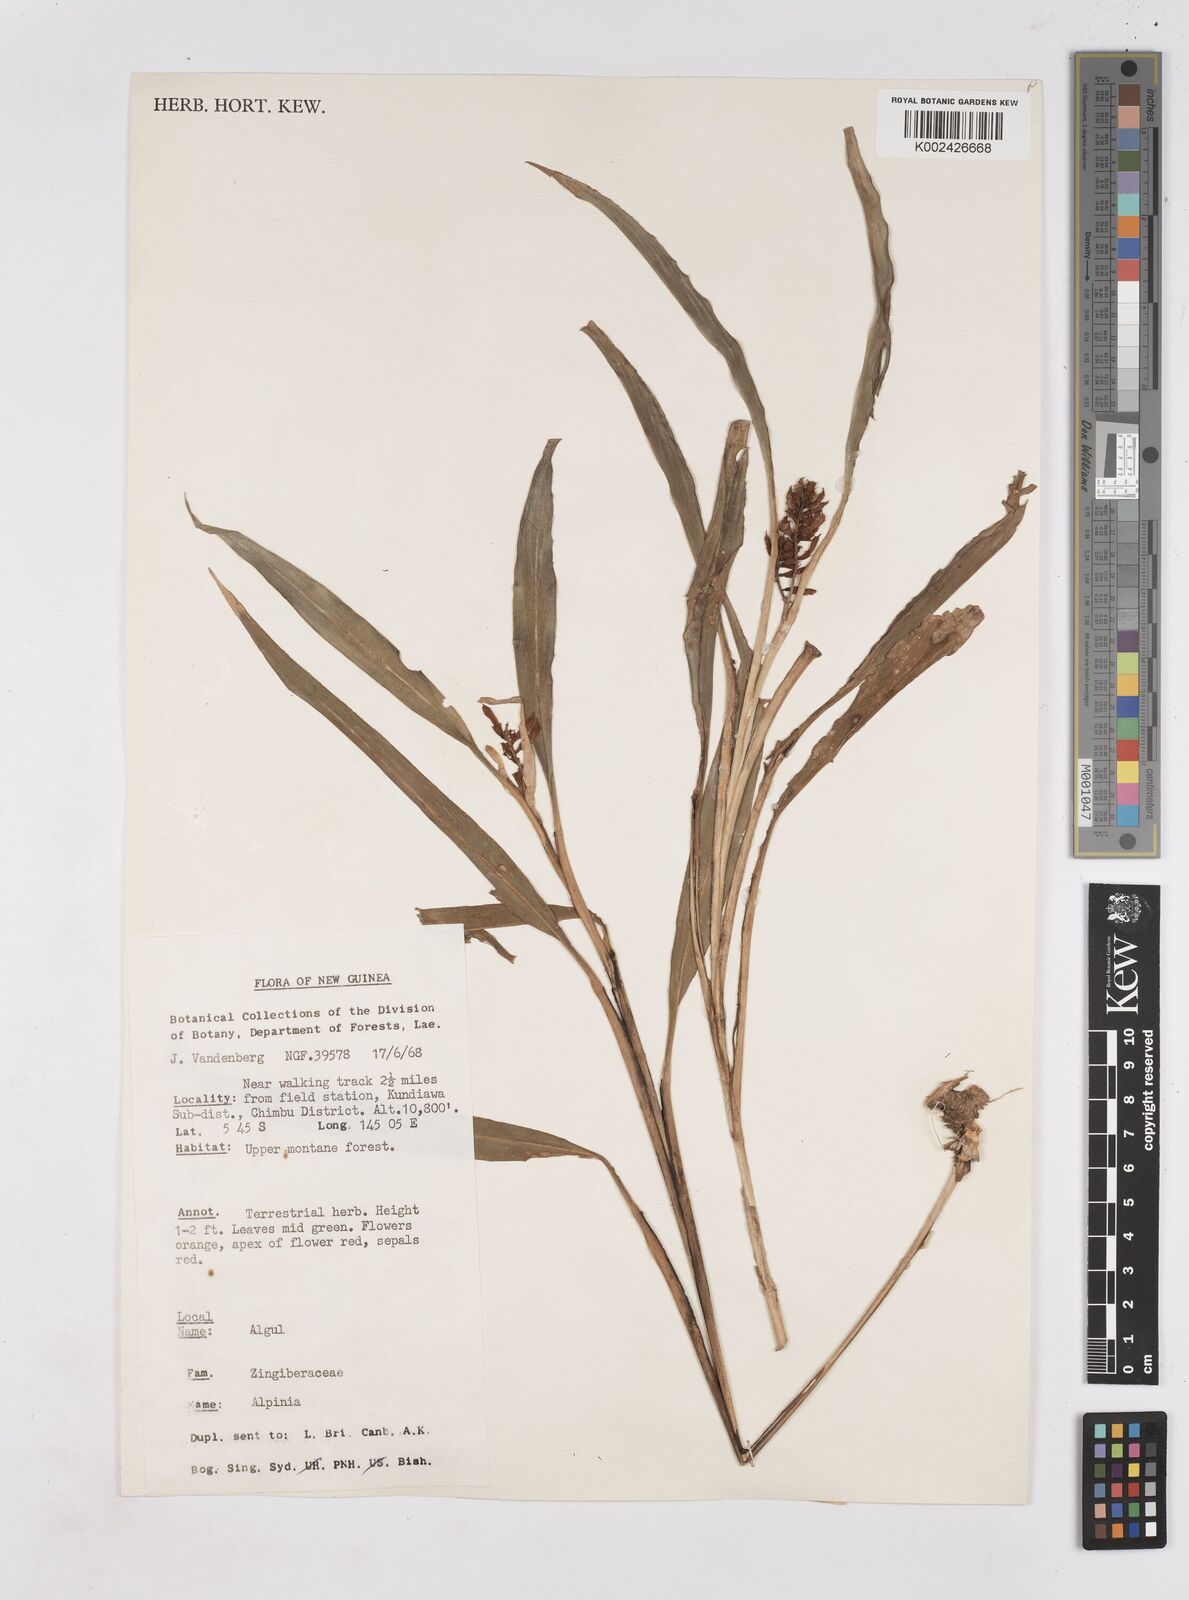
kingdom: Plantae
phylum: Tracheophyta
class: Liliopsida
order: Zingiberales
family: Zingiberaceae
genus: Riedelia
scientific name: Riedelia
